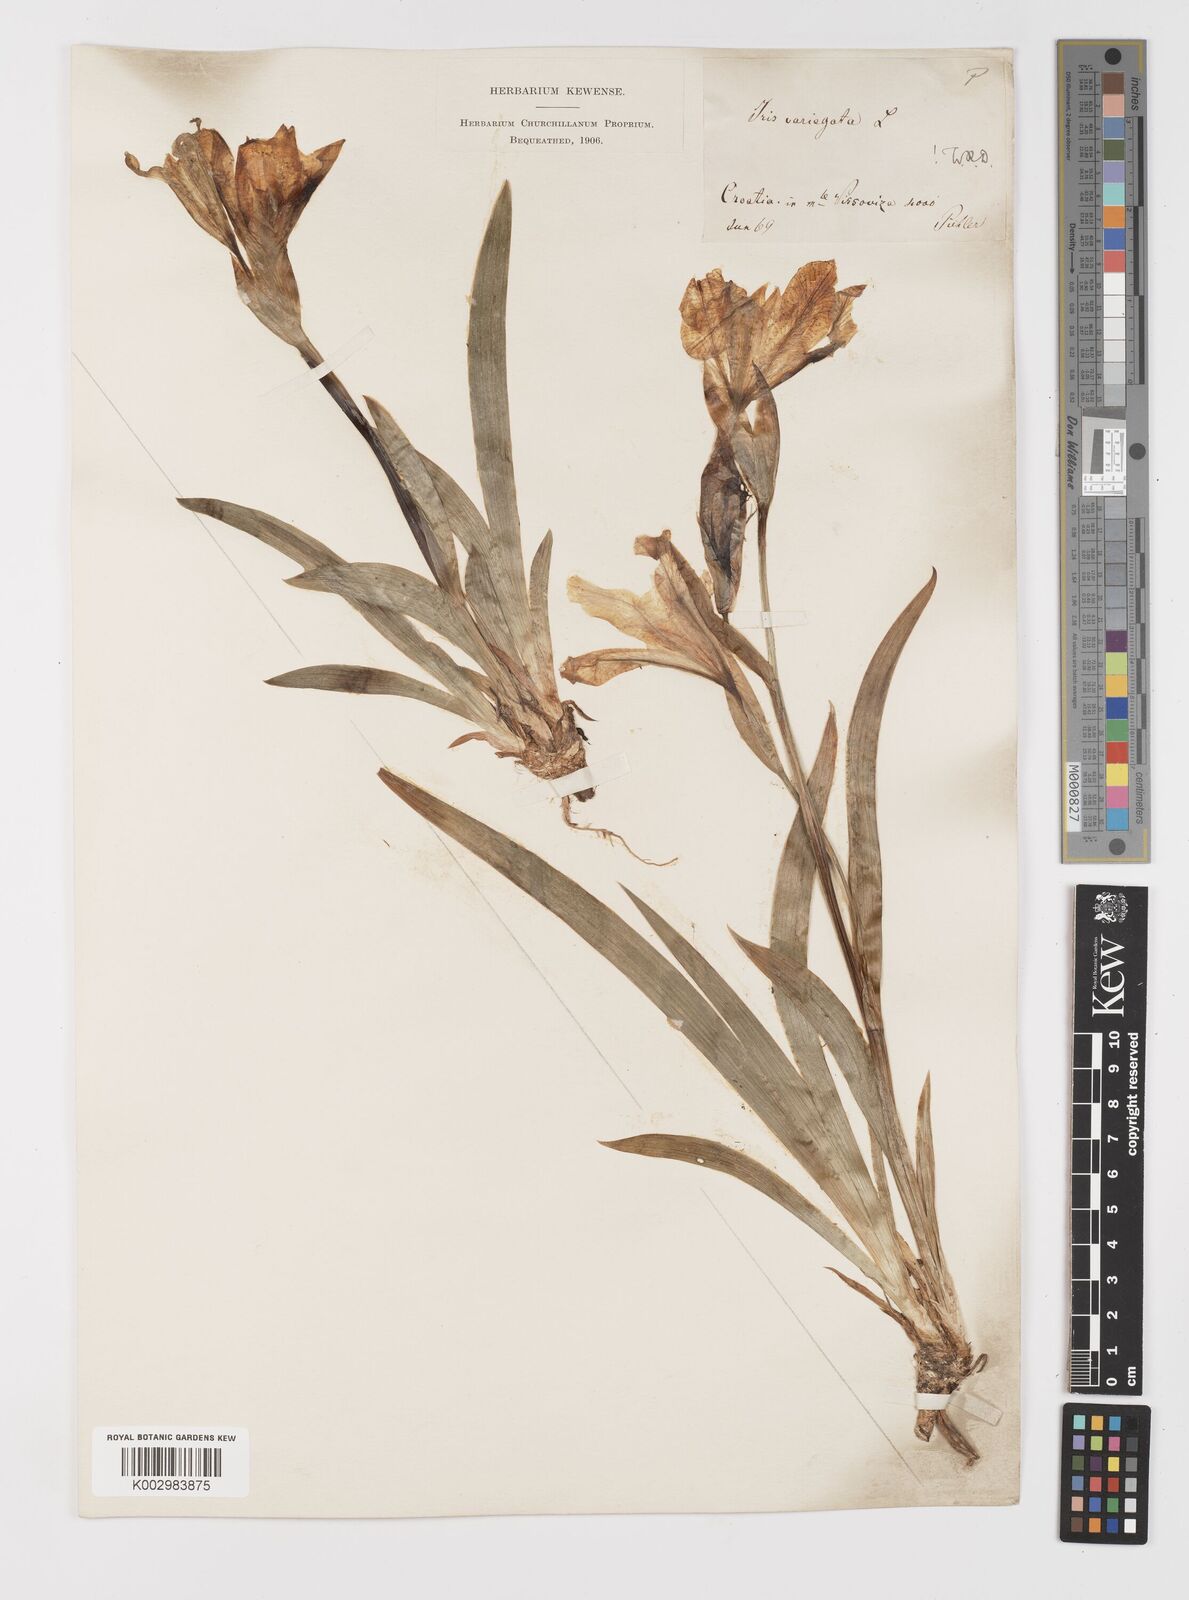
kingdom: Plantae
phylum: Tracheophyta
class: Liliopsida
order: Asparagales
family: Iridaceae
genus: Iris
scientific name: Iris variegata
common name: Hungarian iris
